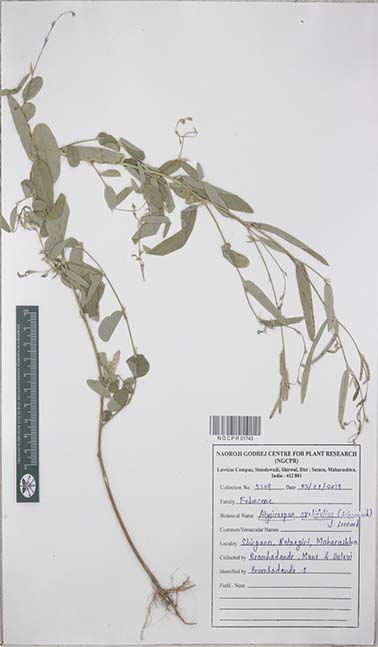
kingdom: Plantae
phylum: Tracheophyta
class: Magnoliopsida
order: Fabales
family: Fabaceae
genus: Alysicarpus
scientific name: Alysicarpus ovalifolius
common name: Alyce clover
